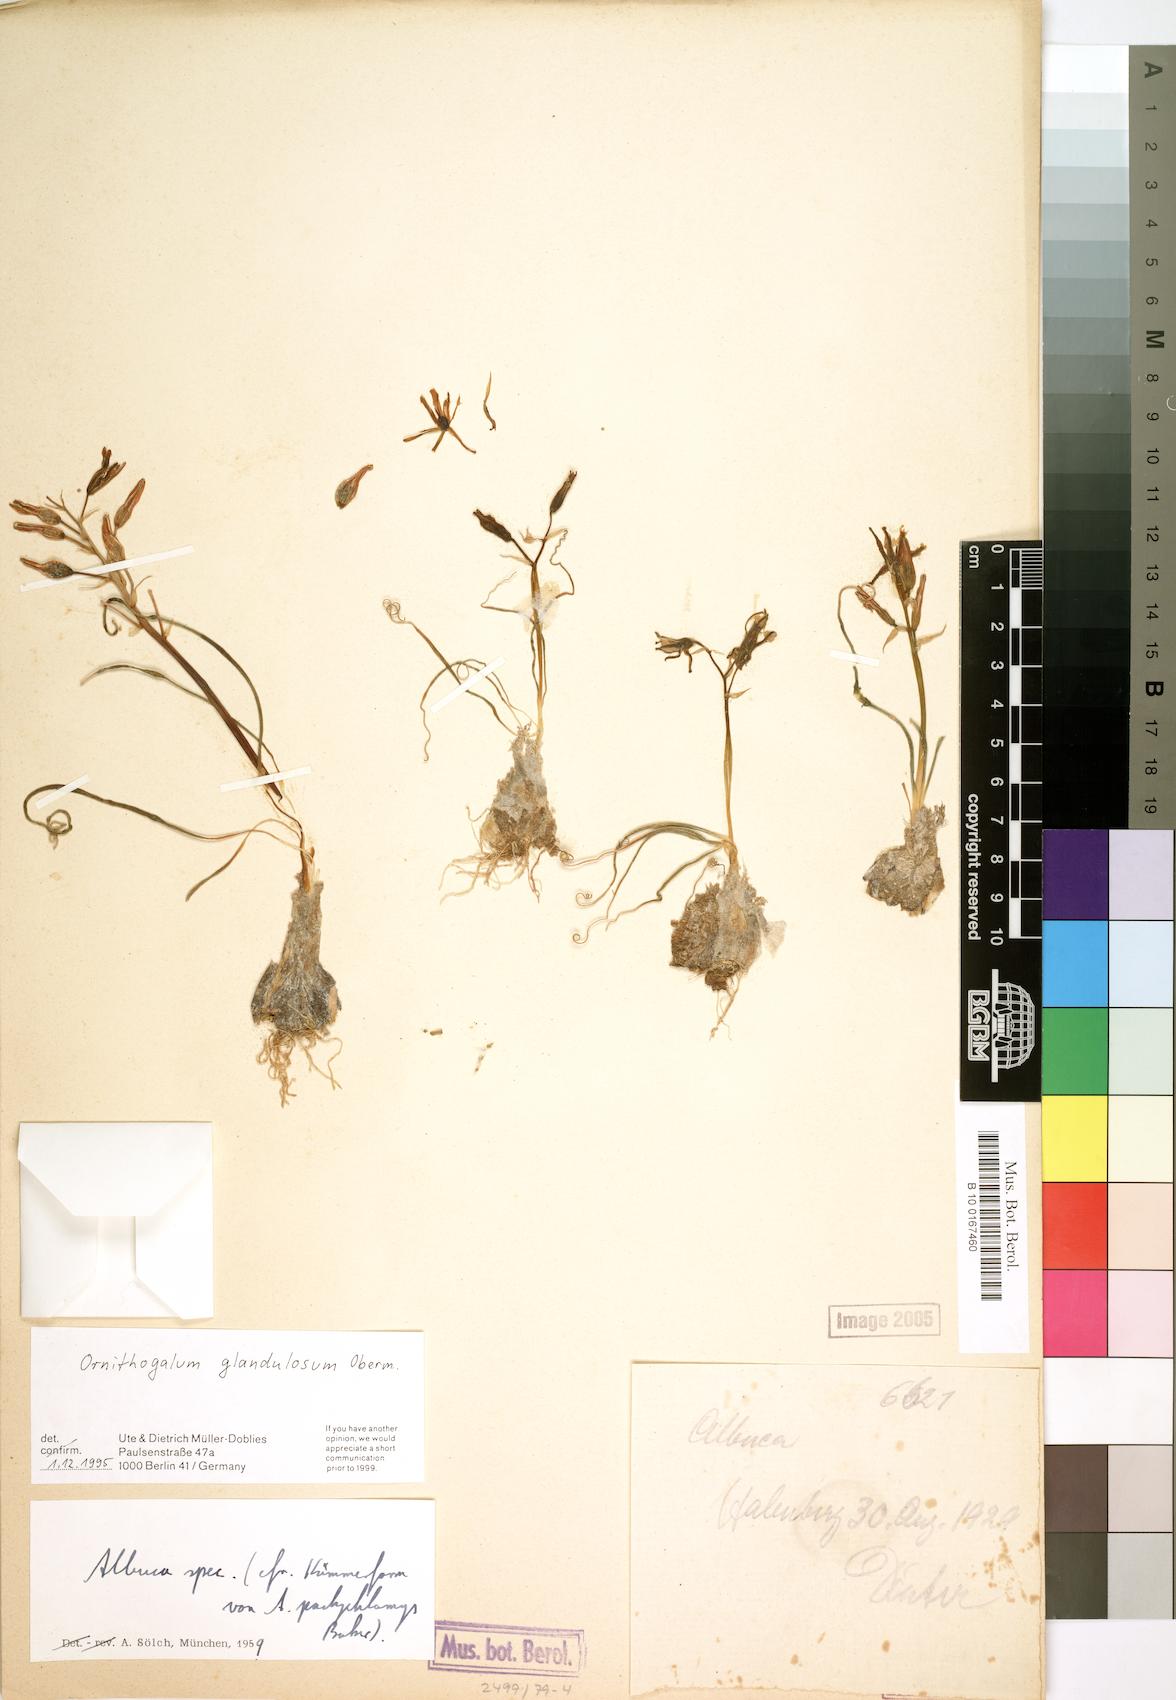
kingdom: Plantae
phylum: Tracheophyta
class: Liliopsida
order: Asparagales
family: Asparagaceae
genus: Albuca
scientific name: Albuca glandulifera
